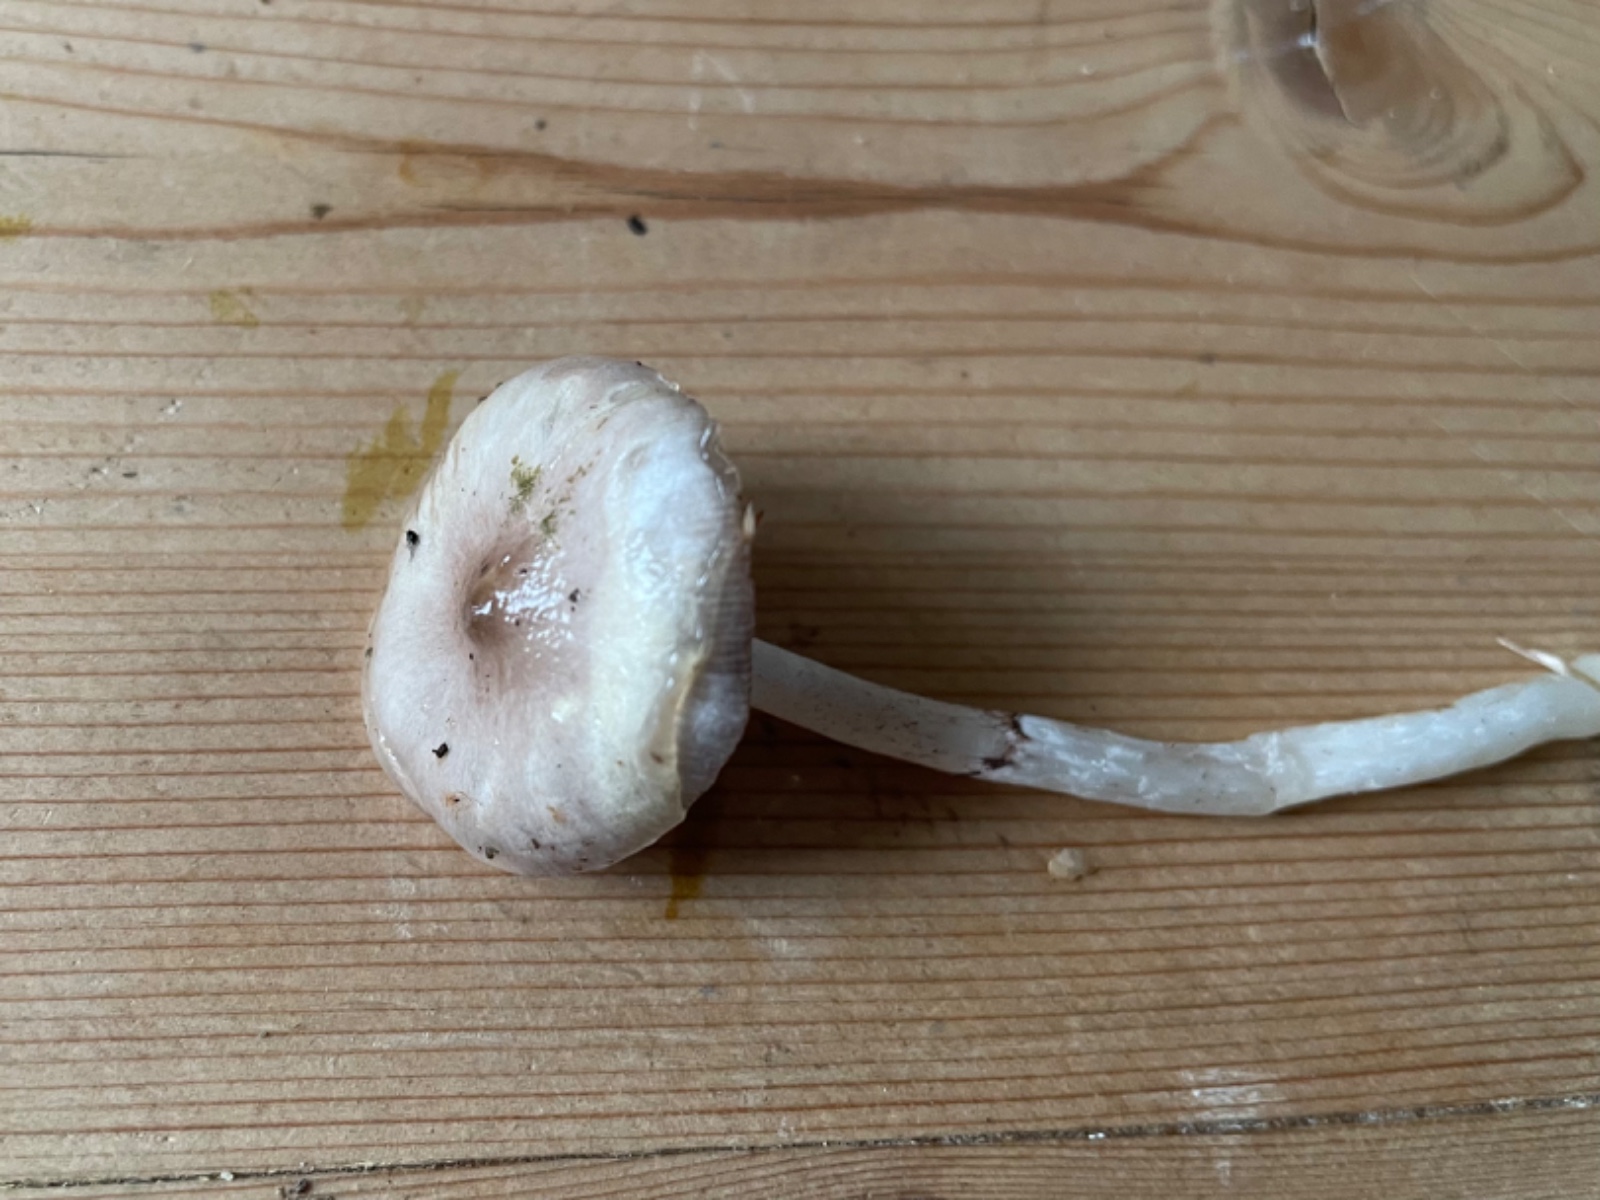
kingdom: Fungi
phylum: Basidiomycota
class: Agaricomycetes
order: Agaricales
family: Strophariaceae
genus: Stropharia
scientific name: Stropharia inuncta
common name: lillabrun bredblad
